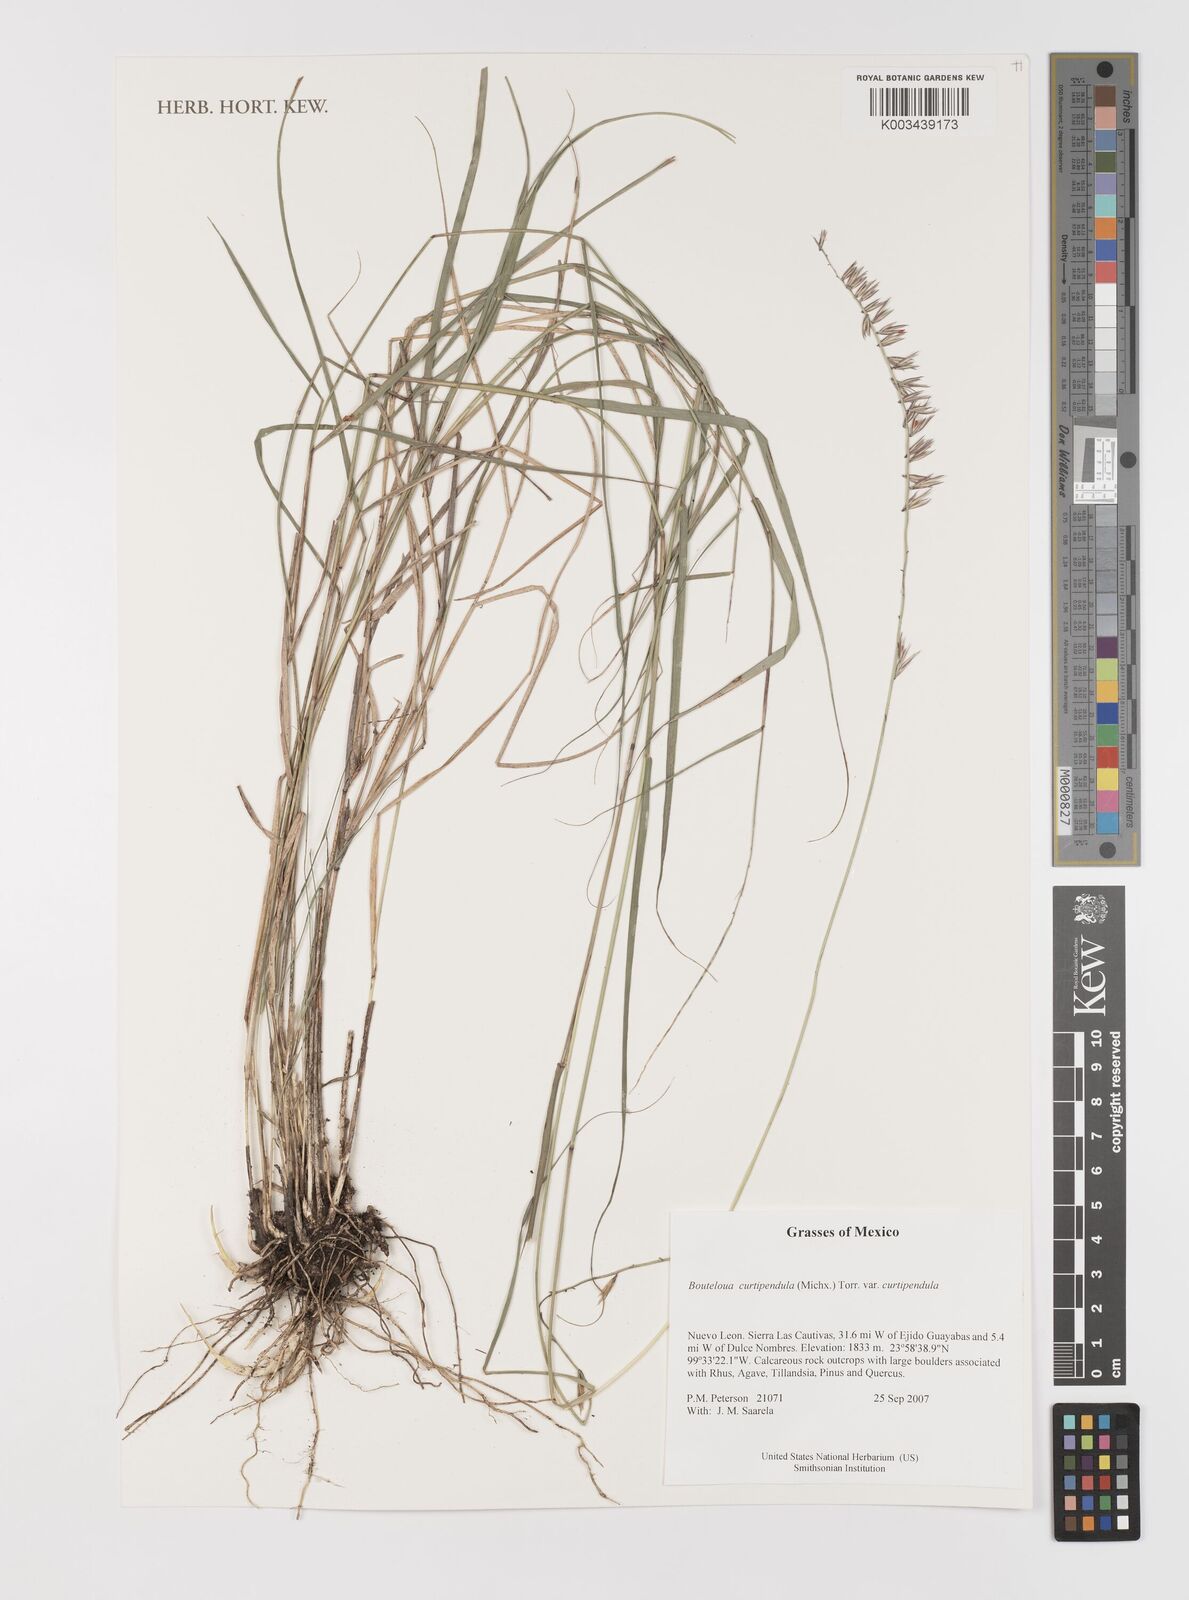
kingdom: Plantae
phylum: Tracheophyta
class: Liliopsida
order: Poales
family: Poaceae
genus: Bouteloua
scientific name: Bouteloua curtipendula
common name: Side-oats grama
